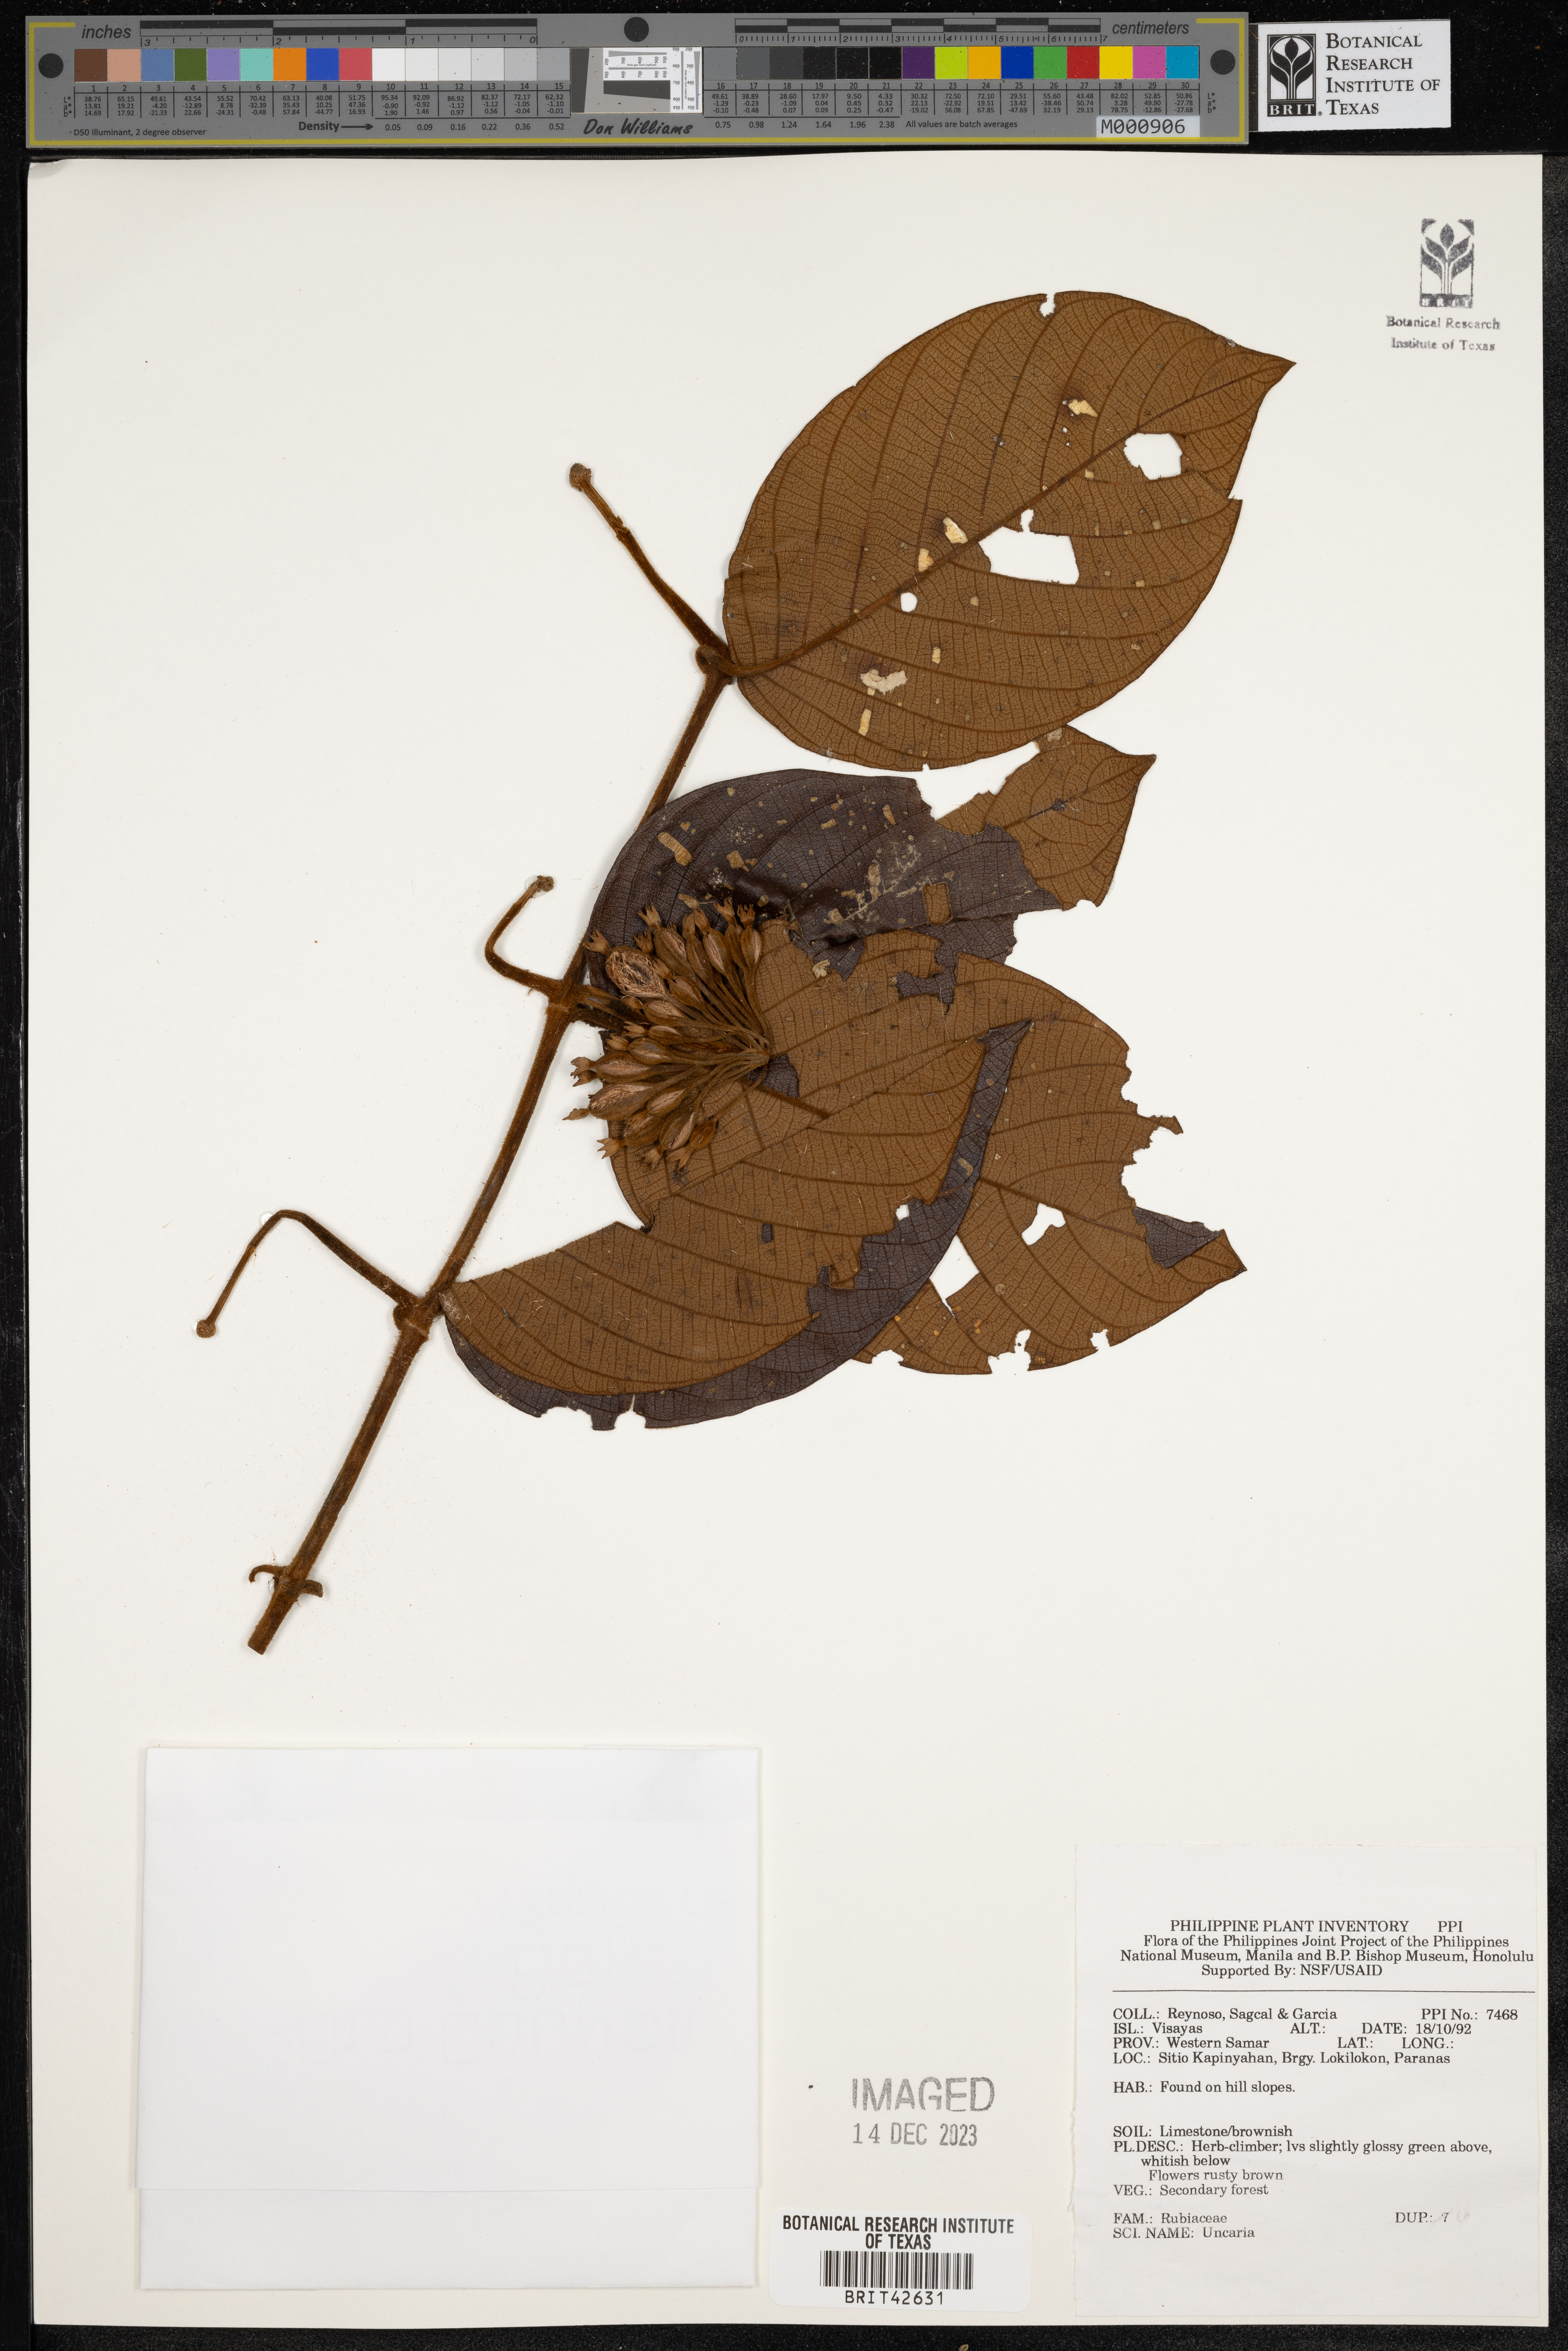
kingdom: Plantae
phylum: Tracheophyta
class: Magnoliopsida
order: Gentianales
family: Rubiaceae
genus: Uncaria
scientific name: Uncaria
